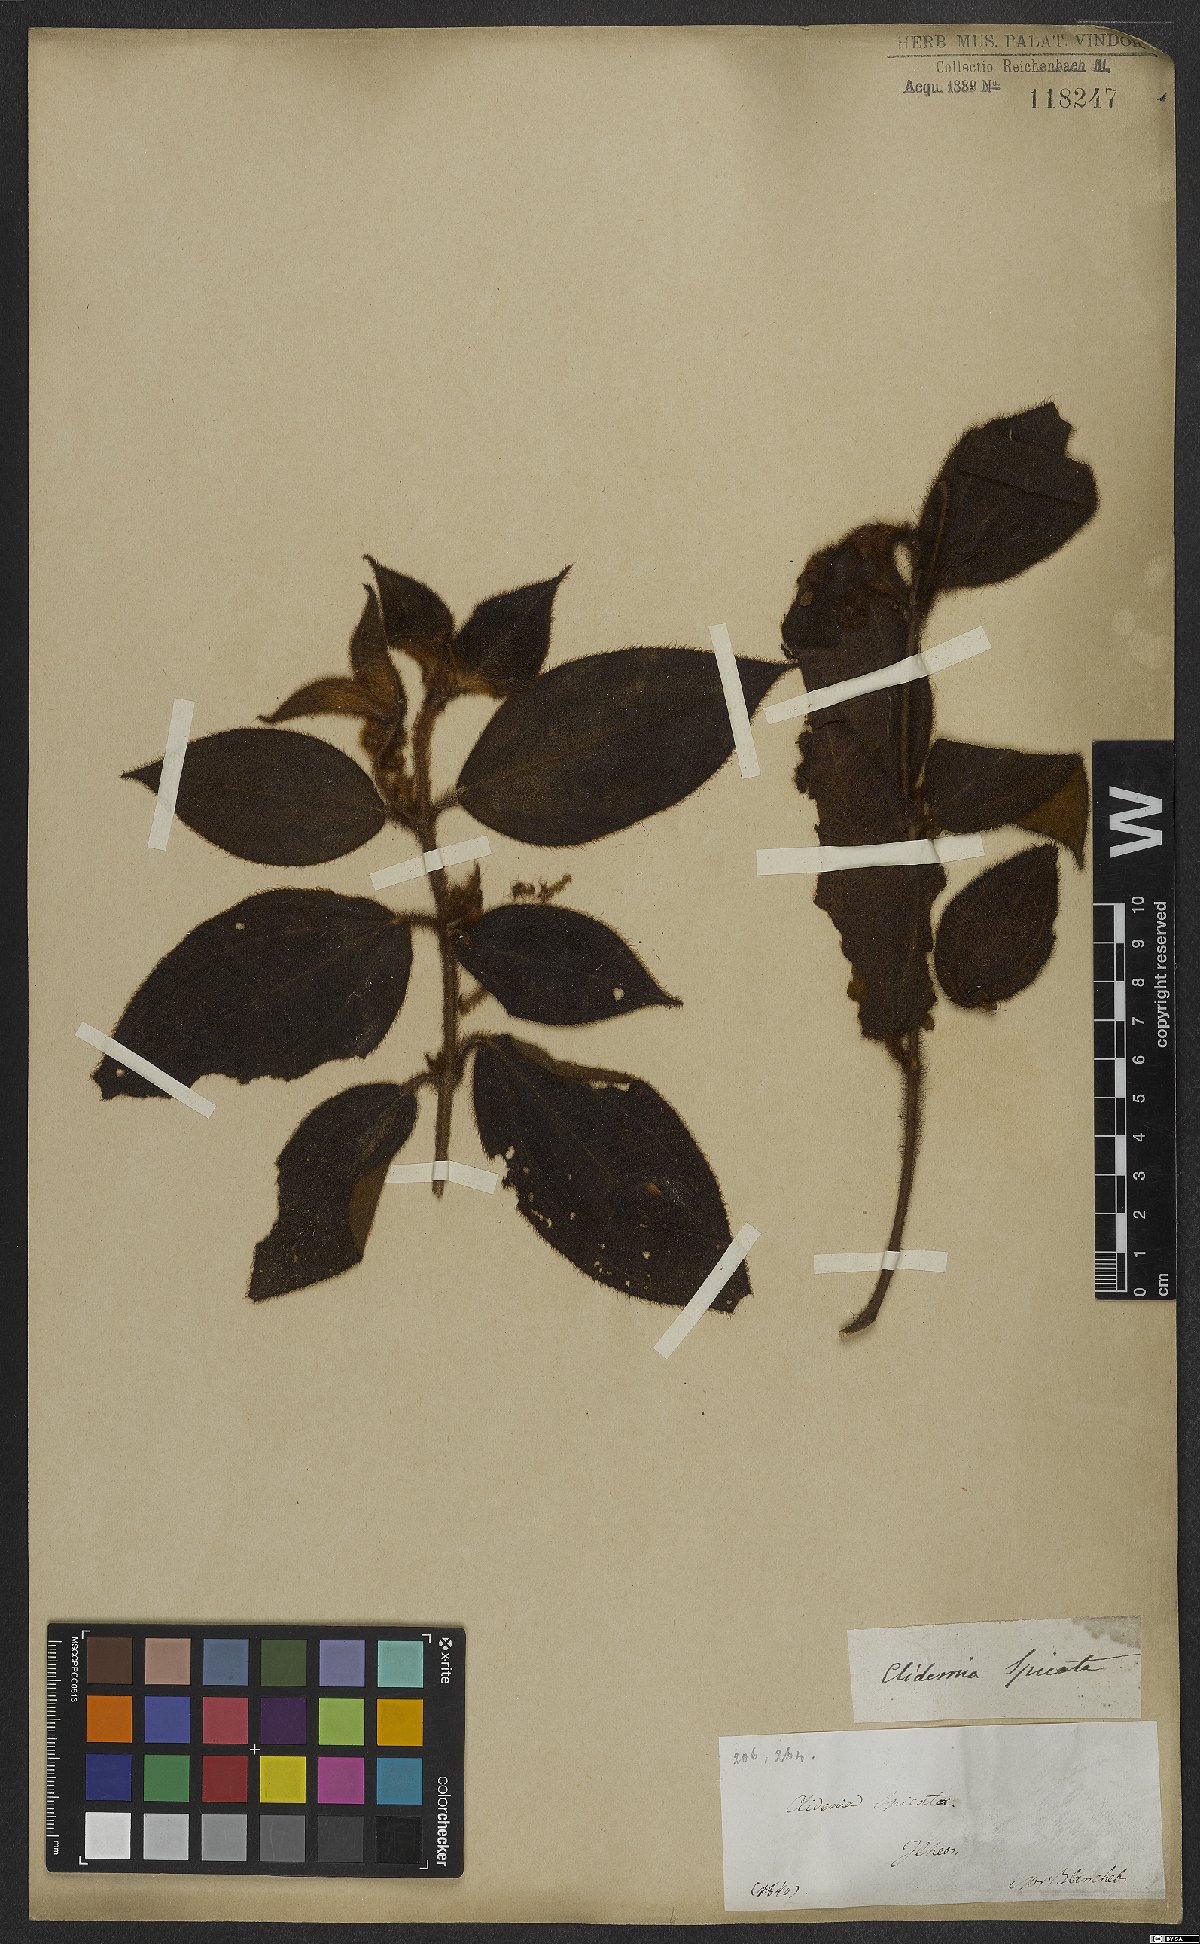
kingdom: Plantae
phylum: Tracheophyta
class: Magnoliopsida
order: Myrtales
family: Melastomataceae
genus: Miconia
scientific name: Miconia dependens
